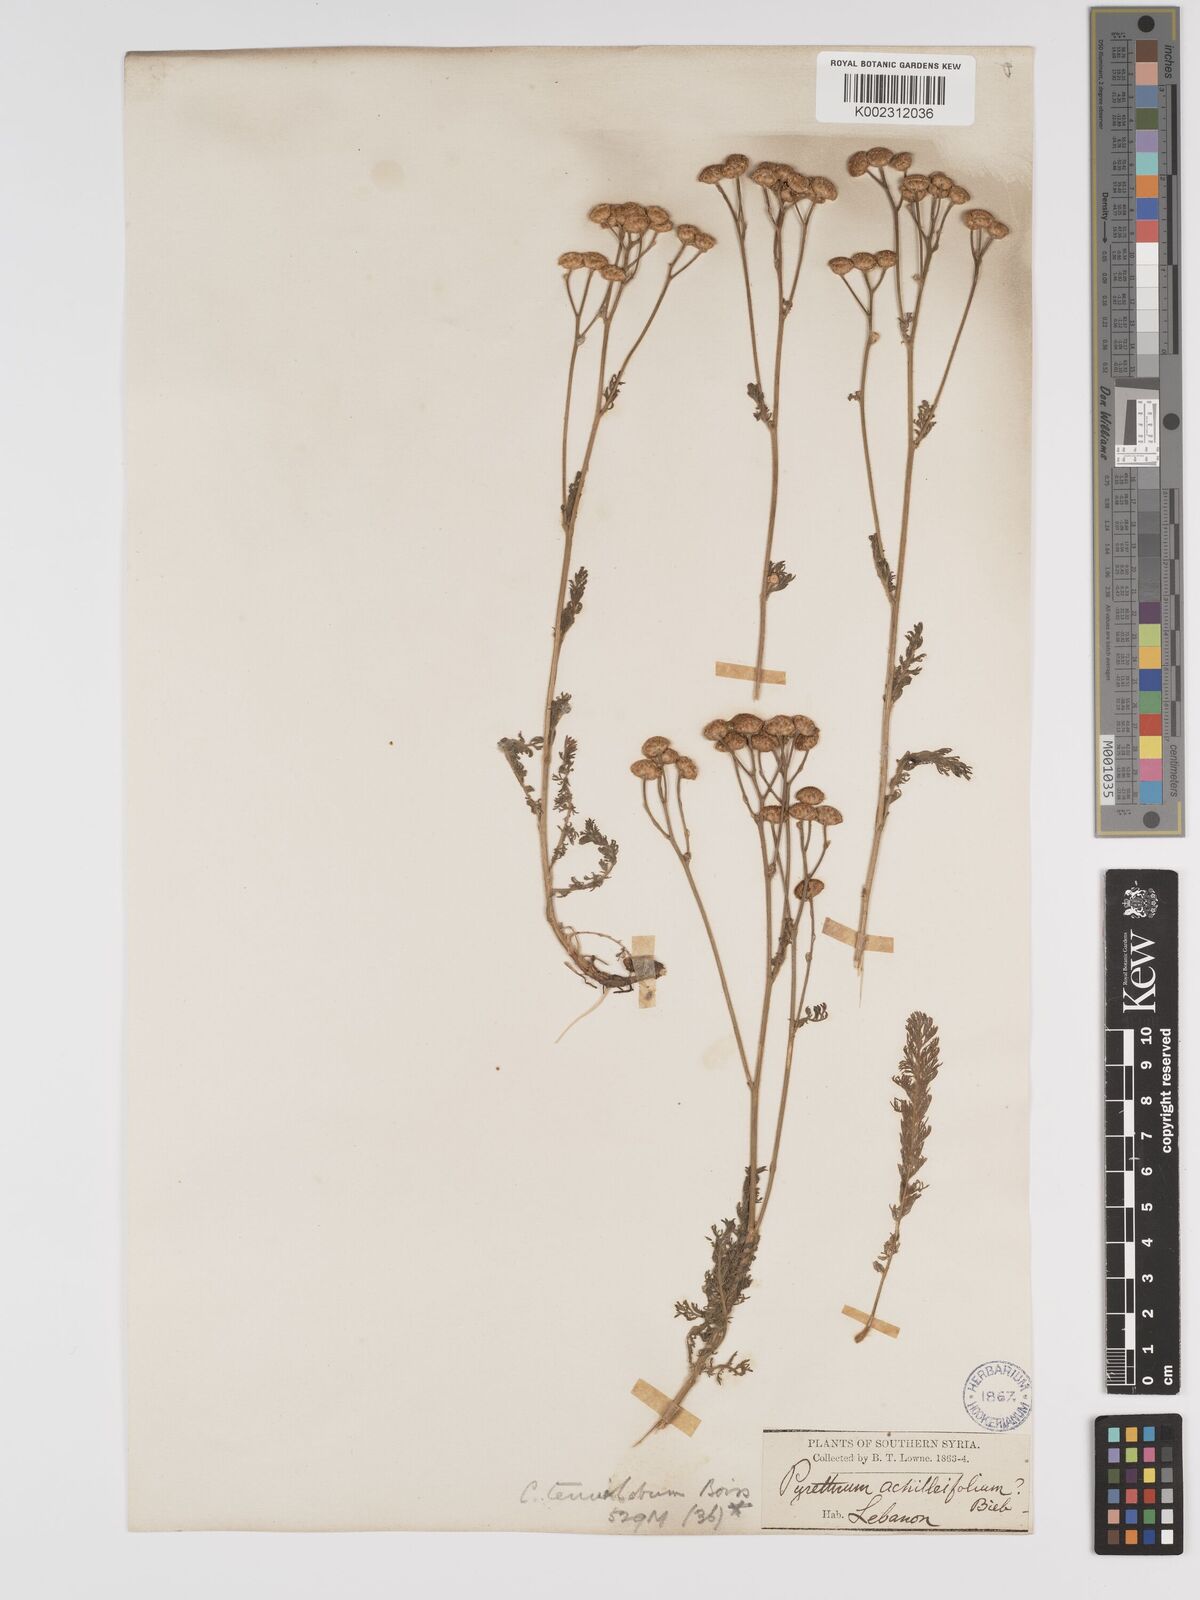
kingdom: Plantae
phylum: Tracheophyta
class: Magnoliopsida
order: Asterales
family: Asteraceae
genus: Tanacetum
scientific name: Tanacetum aucheri
